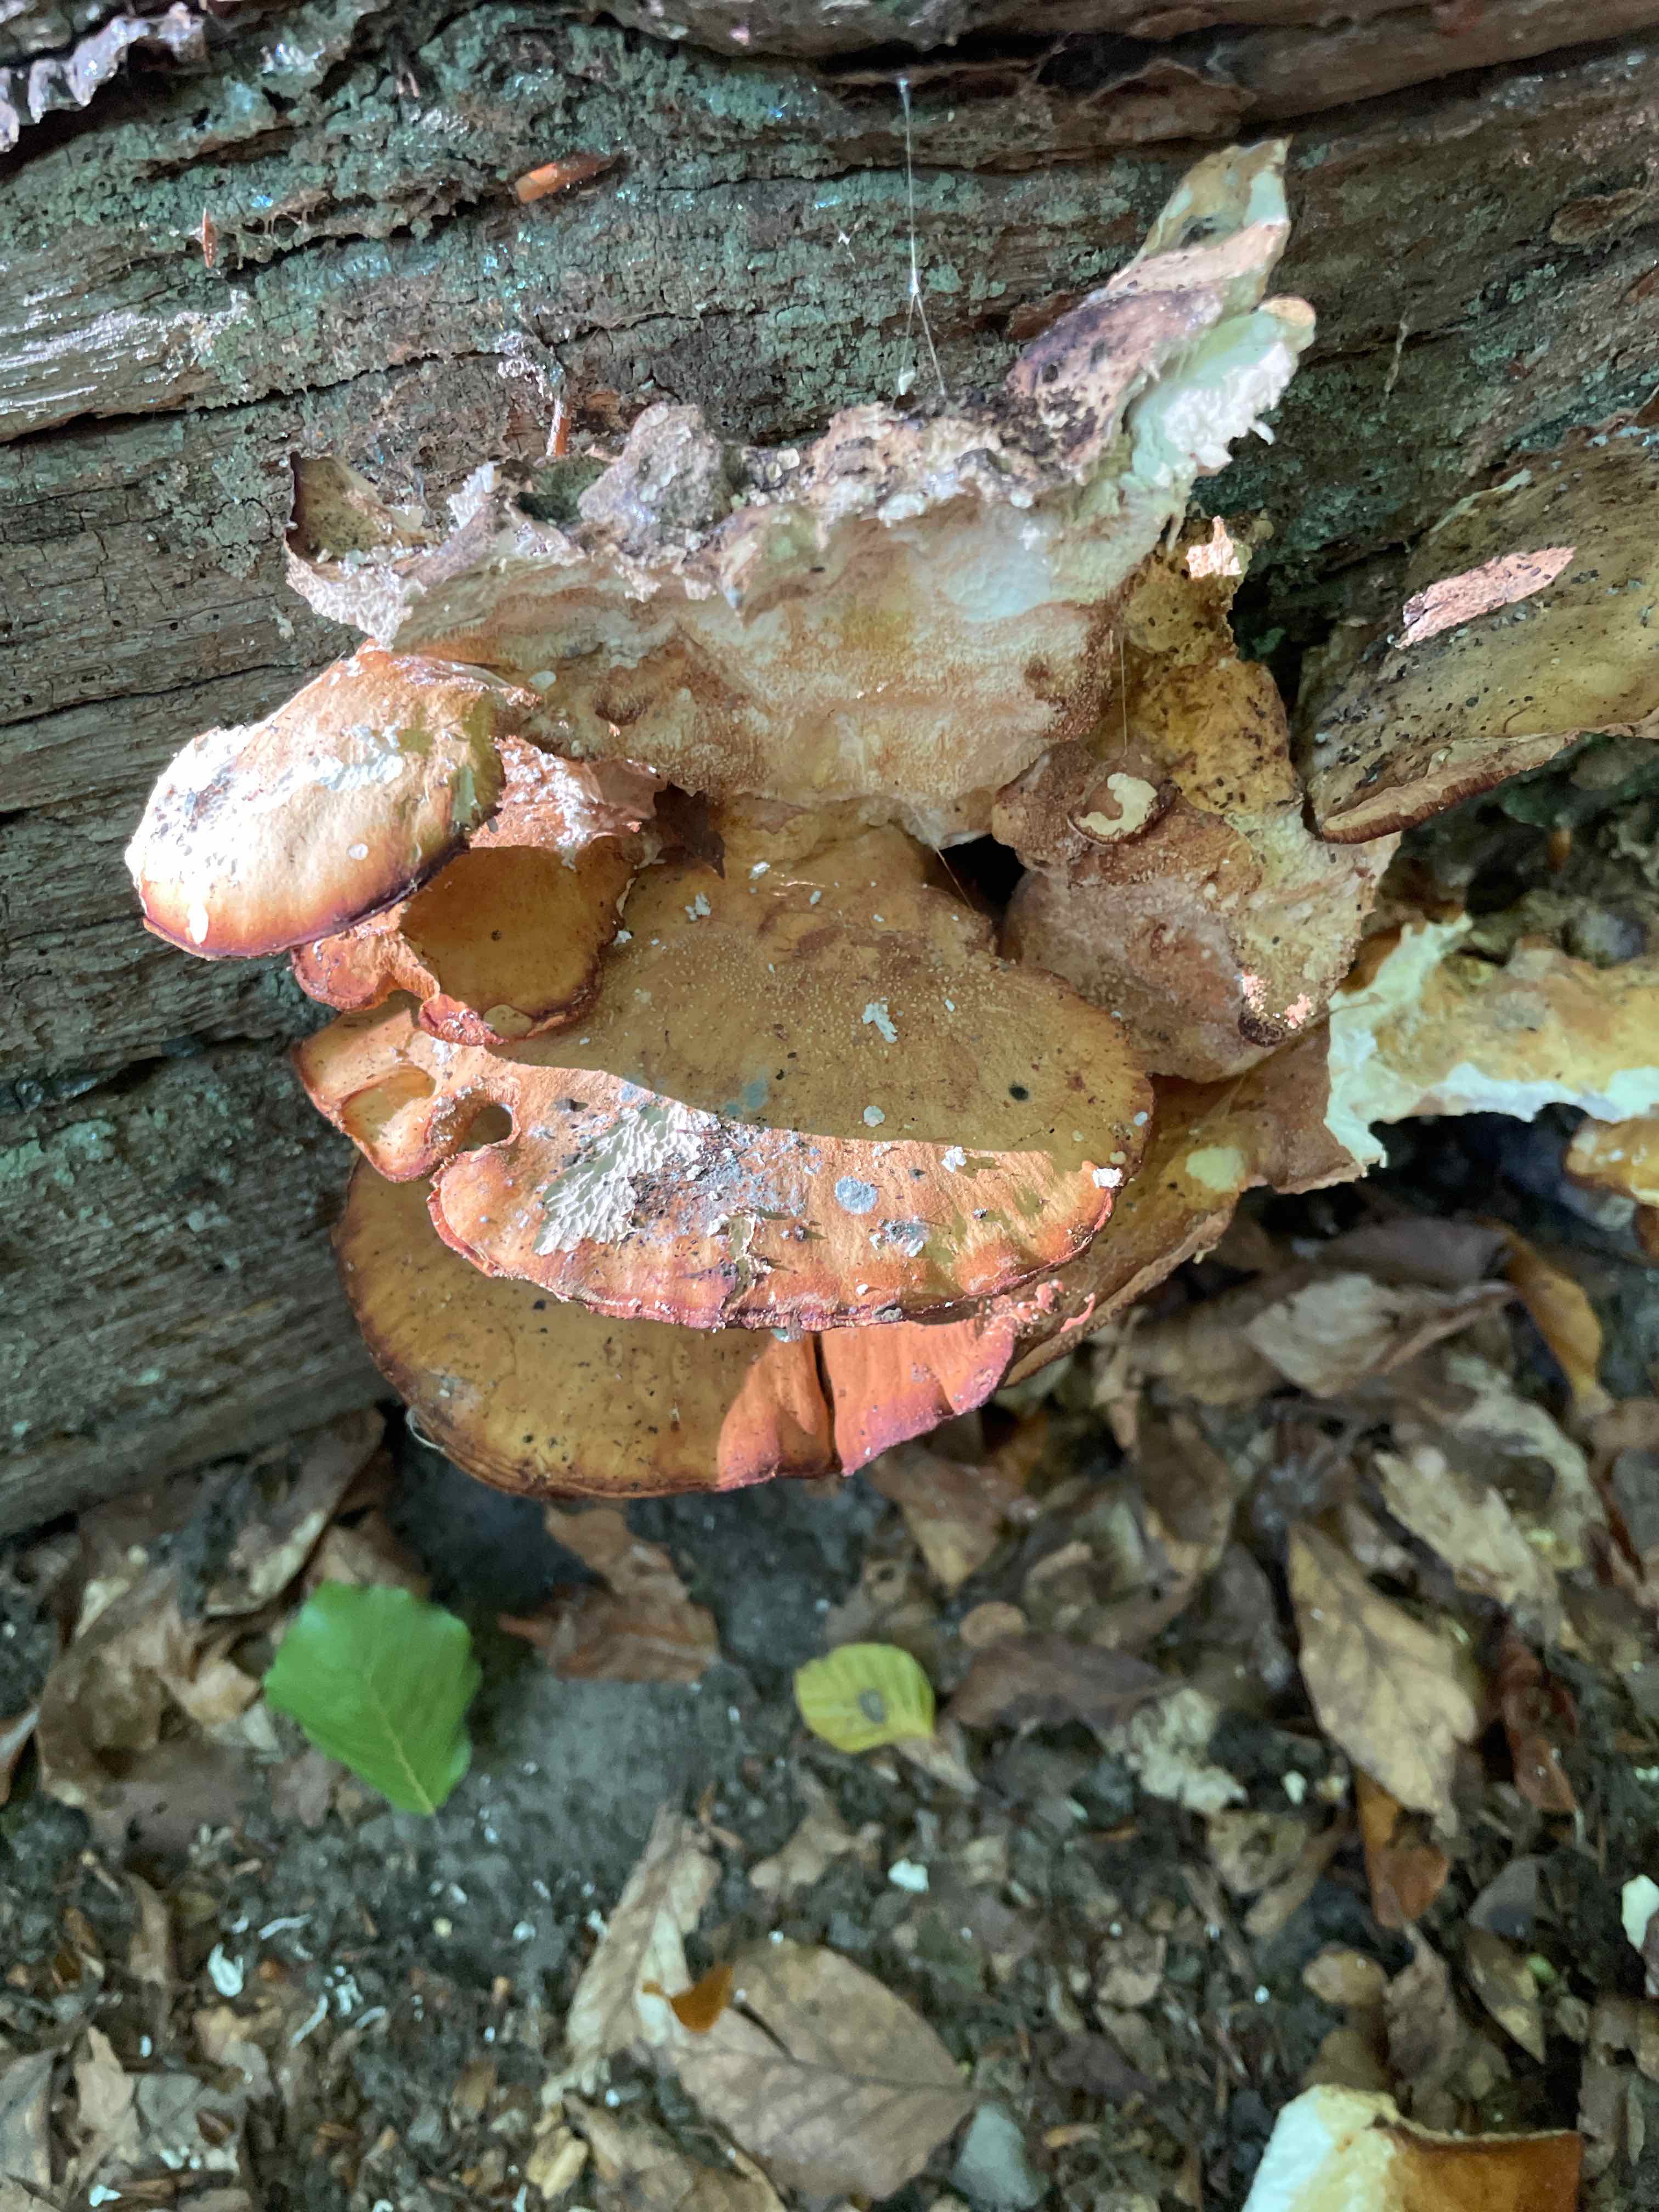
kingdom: Fungi
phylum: Basidiomycota
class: Agaricomycetes
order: Polyporales
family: Laetiporaceae
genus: Laetiporus
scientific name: Laetiporus sulphureus
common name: svovlporesvamp
